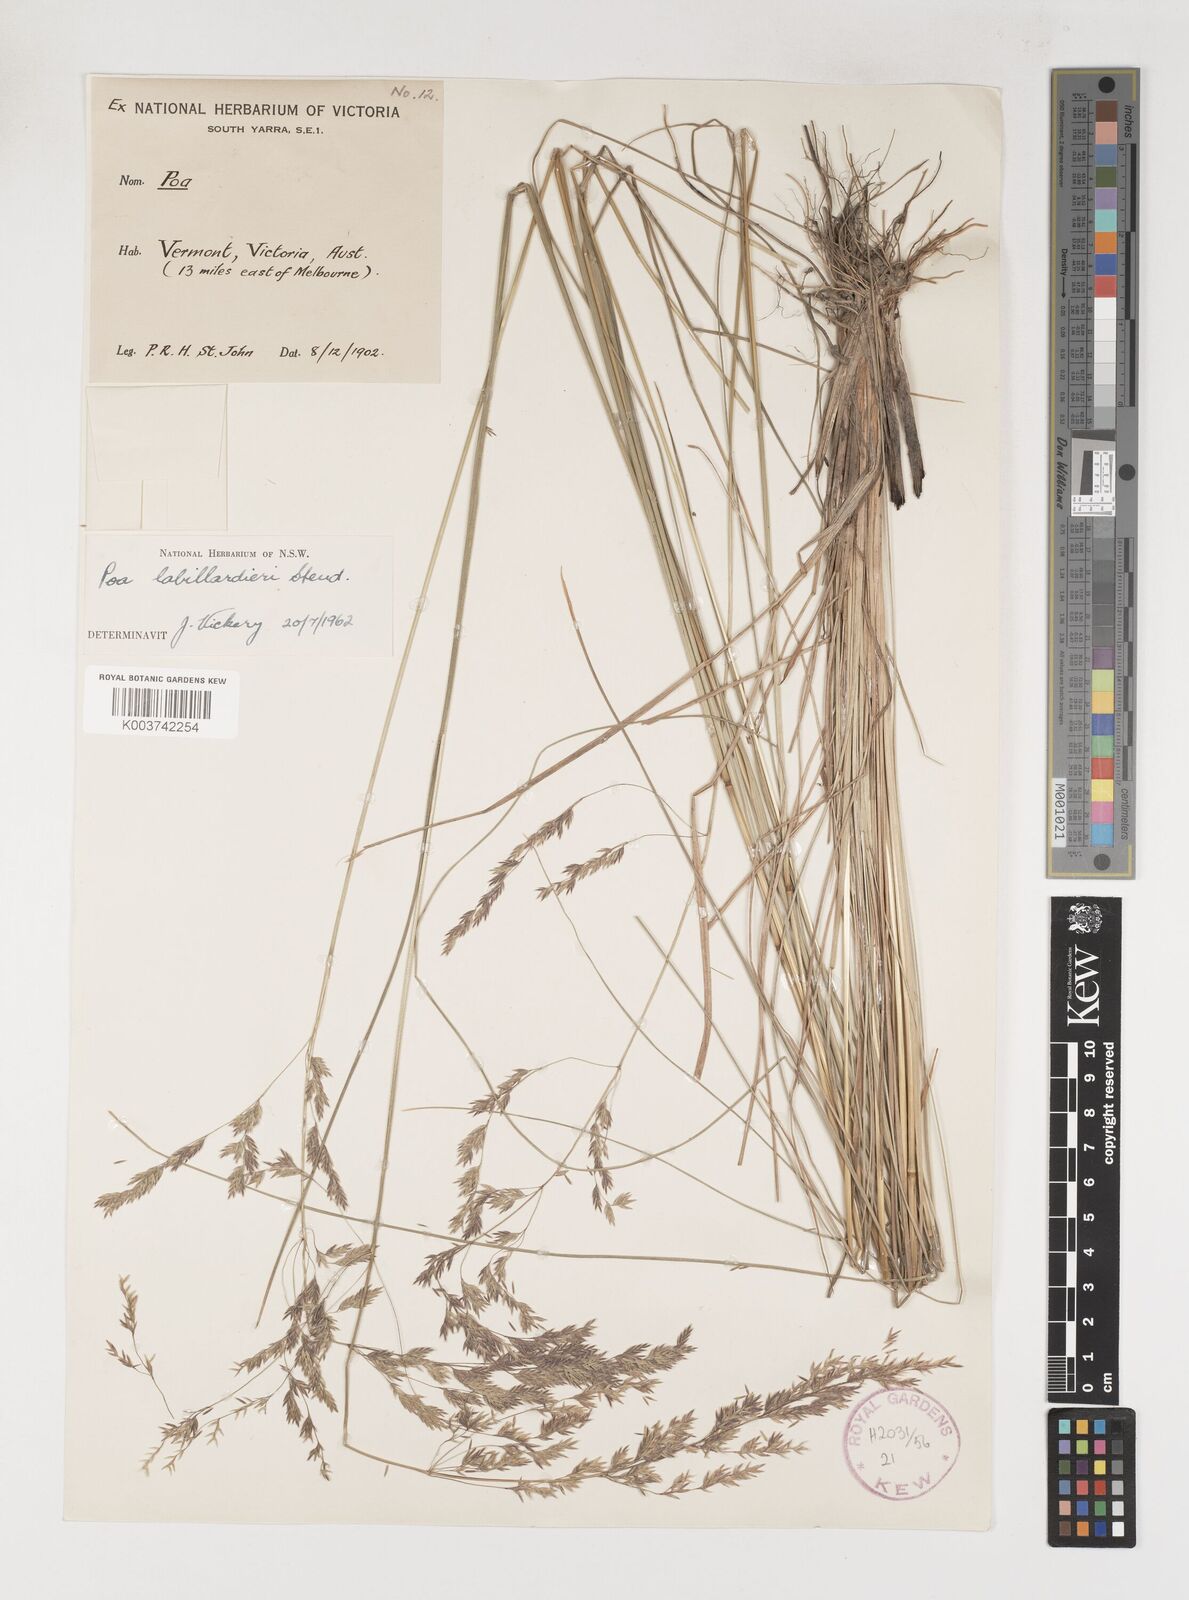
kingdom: Plantae
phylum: Tracheophyta
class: Liliopsida
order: Poales
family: Poaceae
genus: Poa
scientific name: Poa labillardierei
